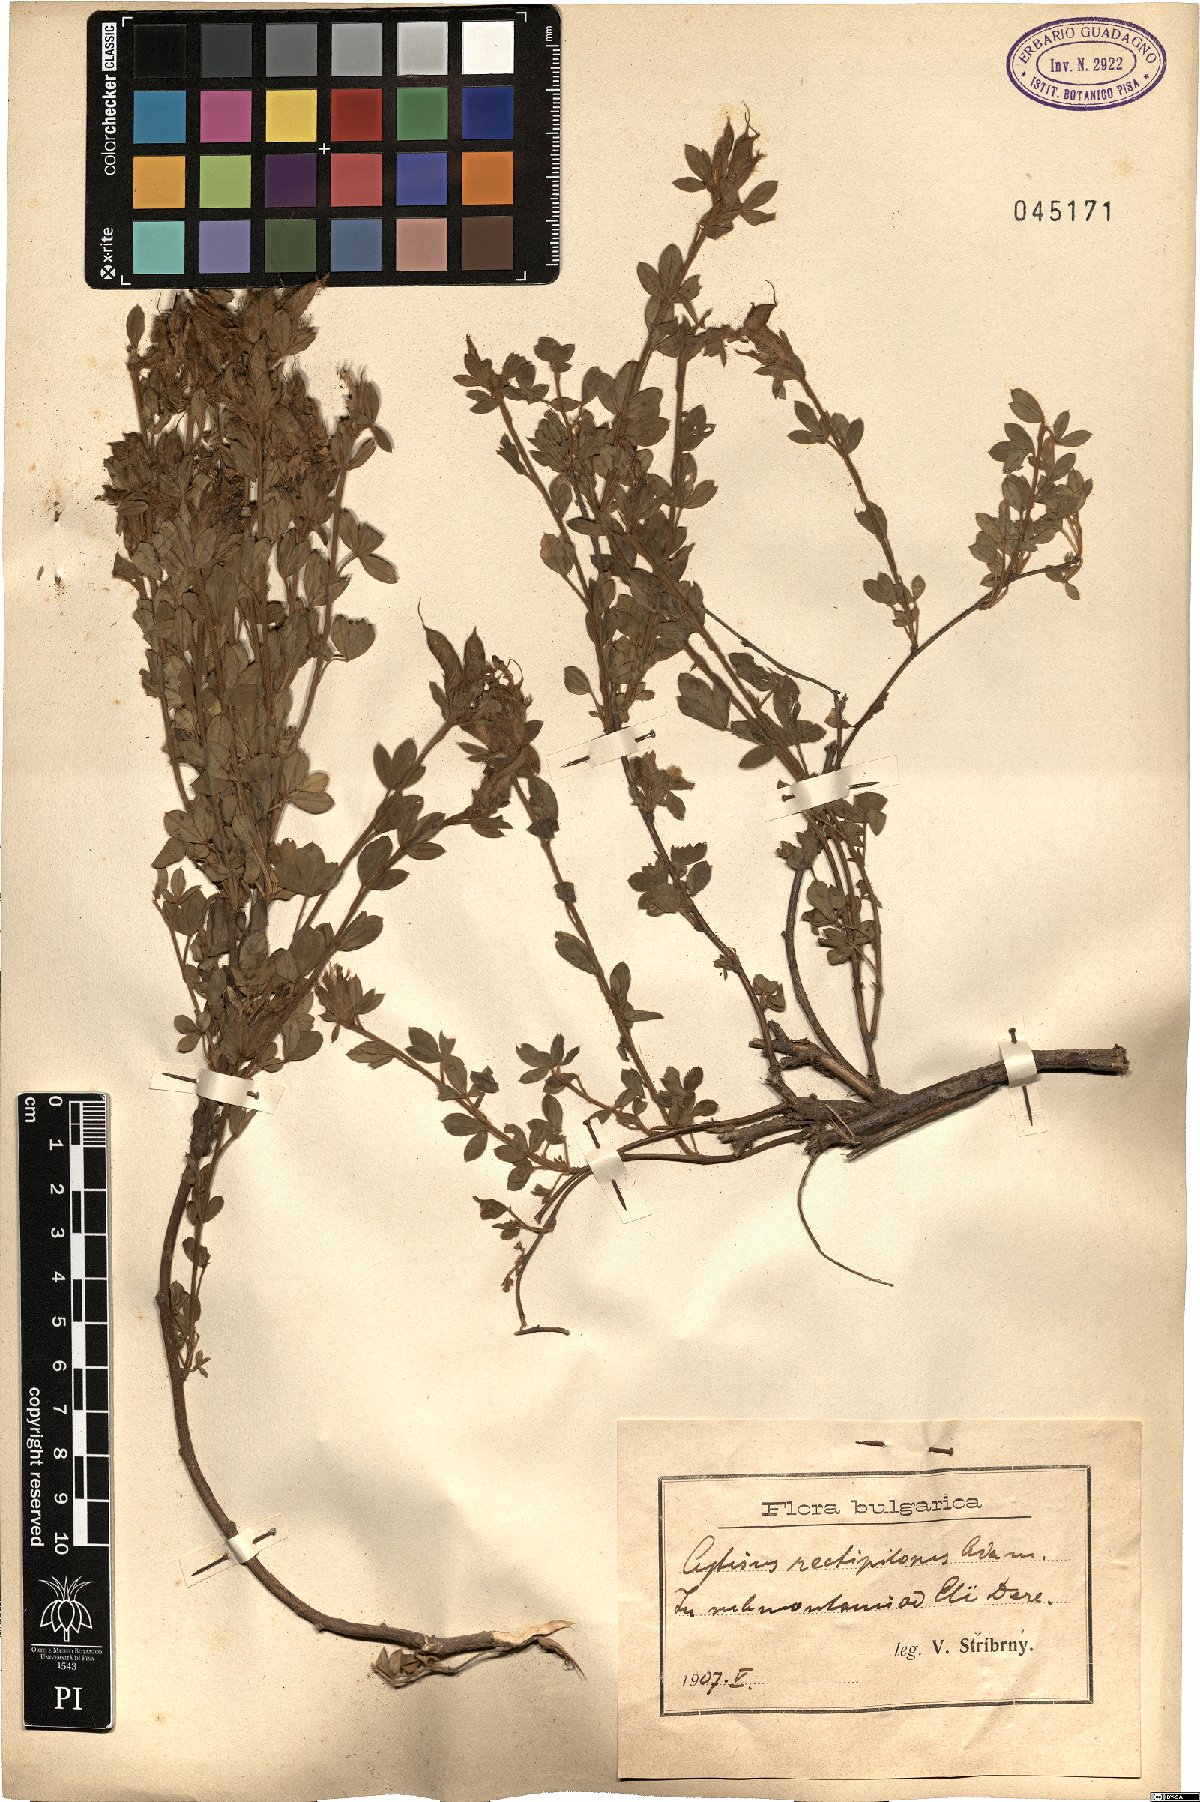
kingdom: Plantae
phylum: Tracheophyta
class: Magnoliopsida
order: Fabales
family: Fabaceae
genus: Cytisus
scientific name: Cytisus agnipilus
